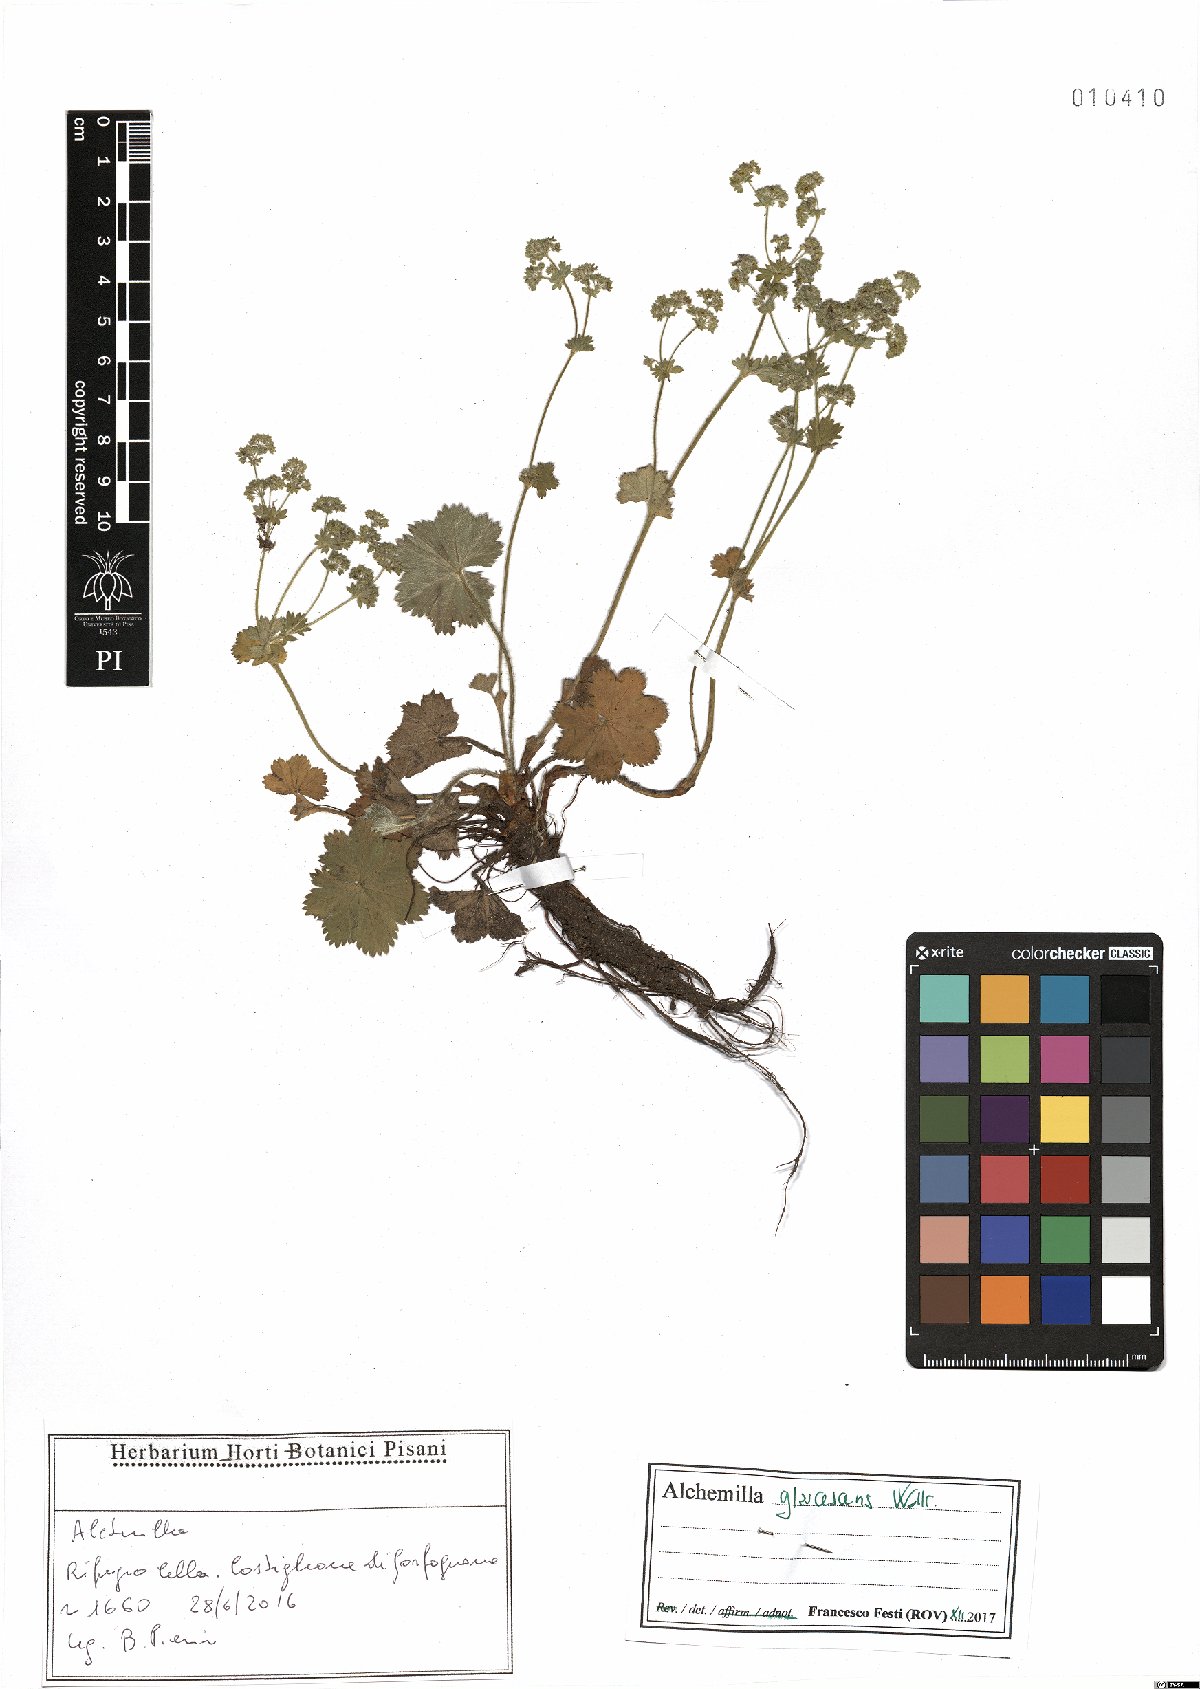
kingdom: Plantae
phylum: Tracheophyta
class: Magnoliopsida
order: Rosales
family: Rosaceae
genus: Alchemilla
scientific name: Alchemilla glaucescens
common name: Silky lady's mantle
